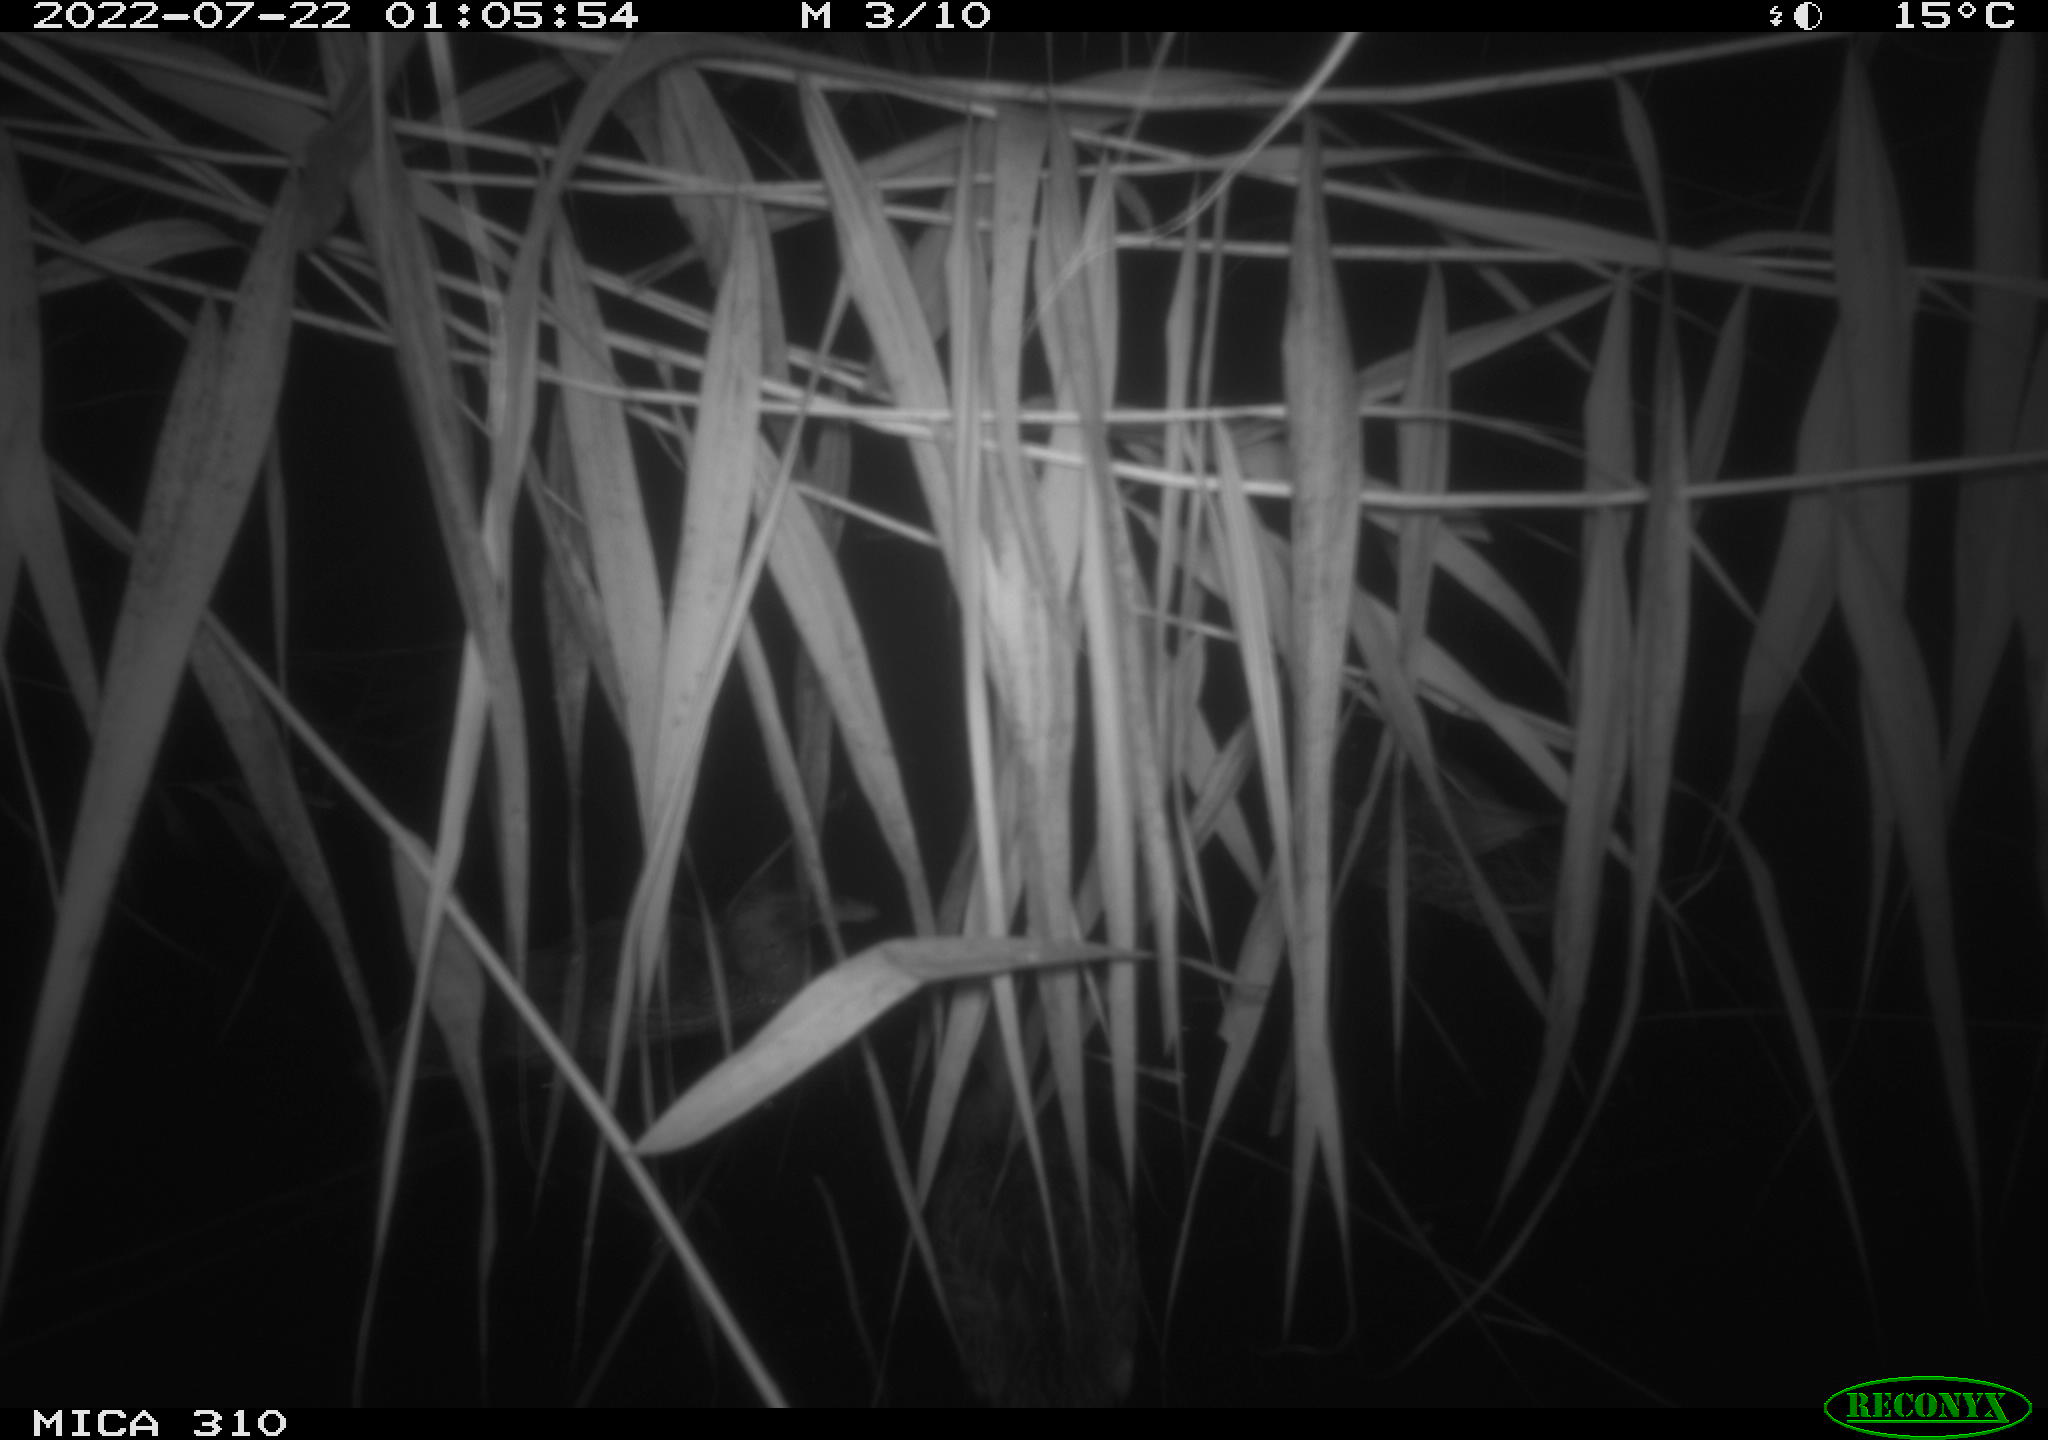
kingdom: Animalia
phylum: Chordata
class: Aves
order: Anseriformes
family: Anatidae
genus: Anas
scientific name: Anas platyrhynchos
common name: Mallard
